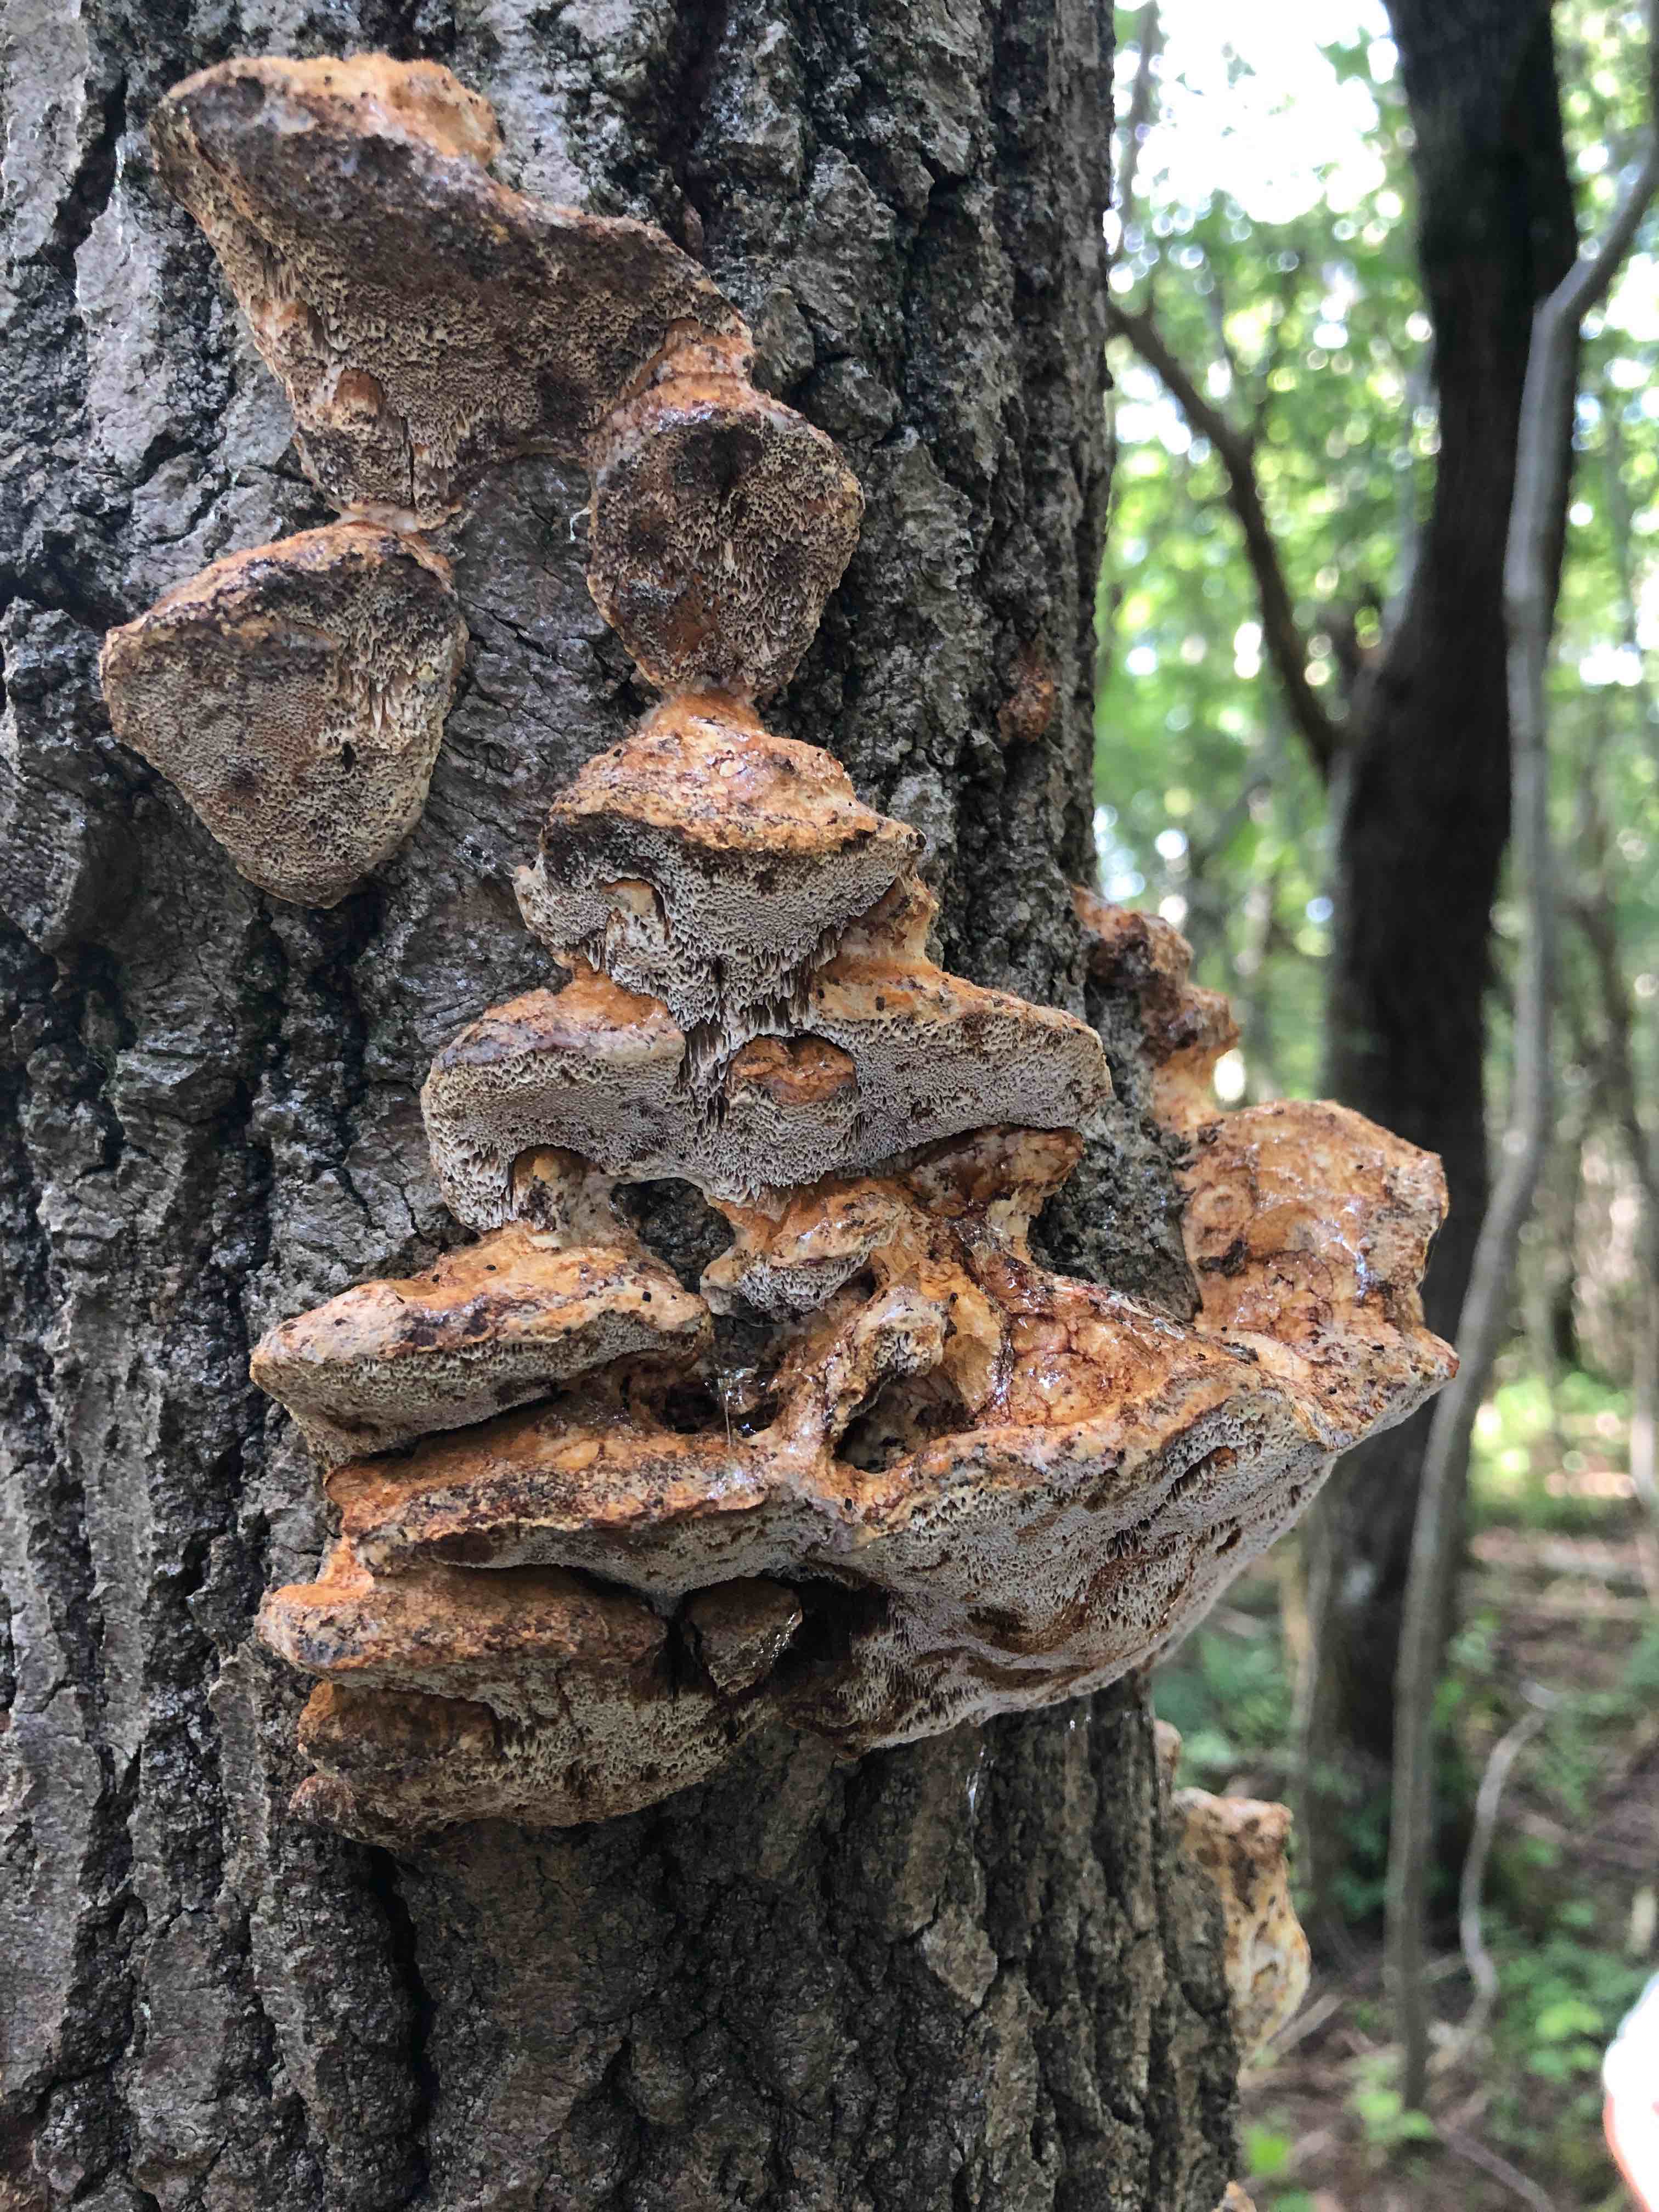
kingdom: Fungi
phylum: Basidiomycota
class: Agaricomycetes
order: Hymenochaetales
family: Hymenochaetaceae
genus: Inocutis
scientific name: Inocutis rheades
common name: ræve-spejlporesvamp
